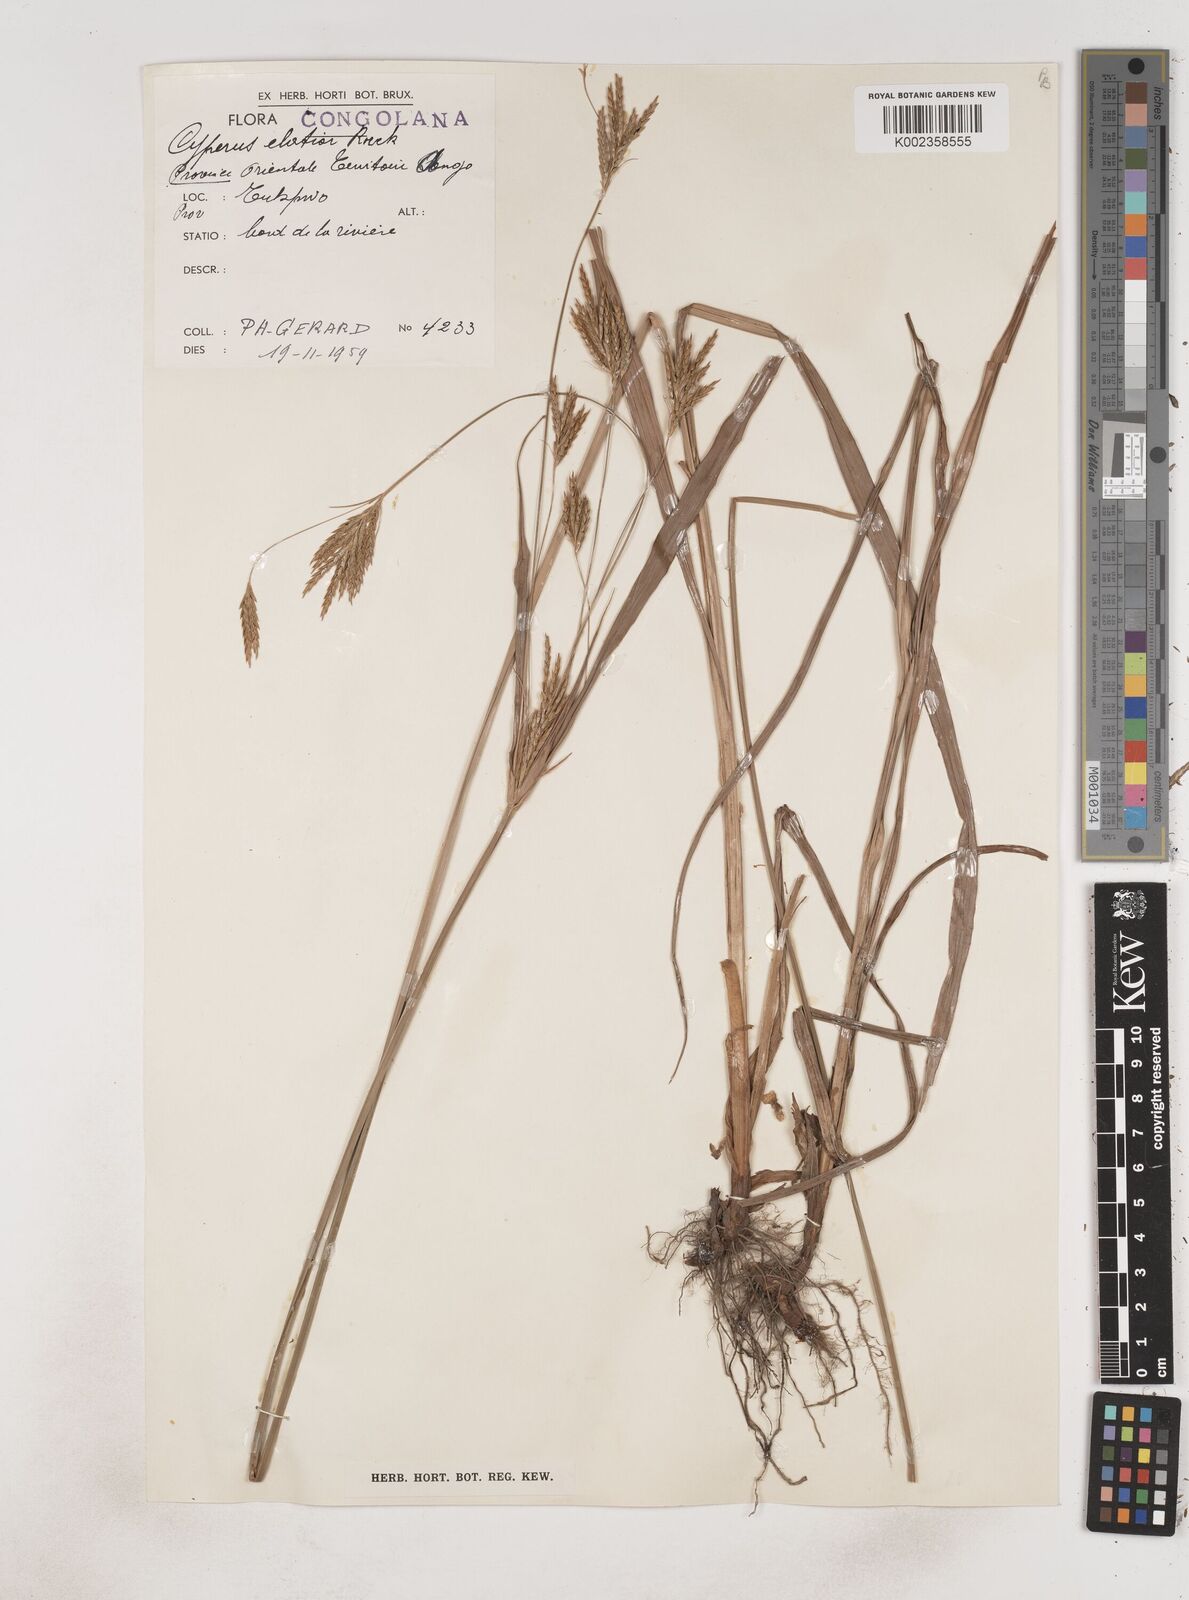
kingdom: Plantae
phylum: Tracheophyta
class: Liliopsida
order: Poales
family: Cyperaceae
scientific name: Cyperaceae
